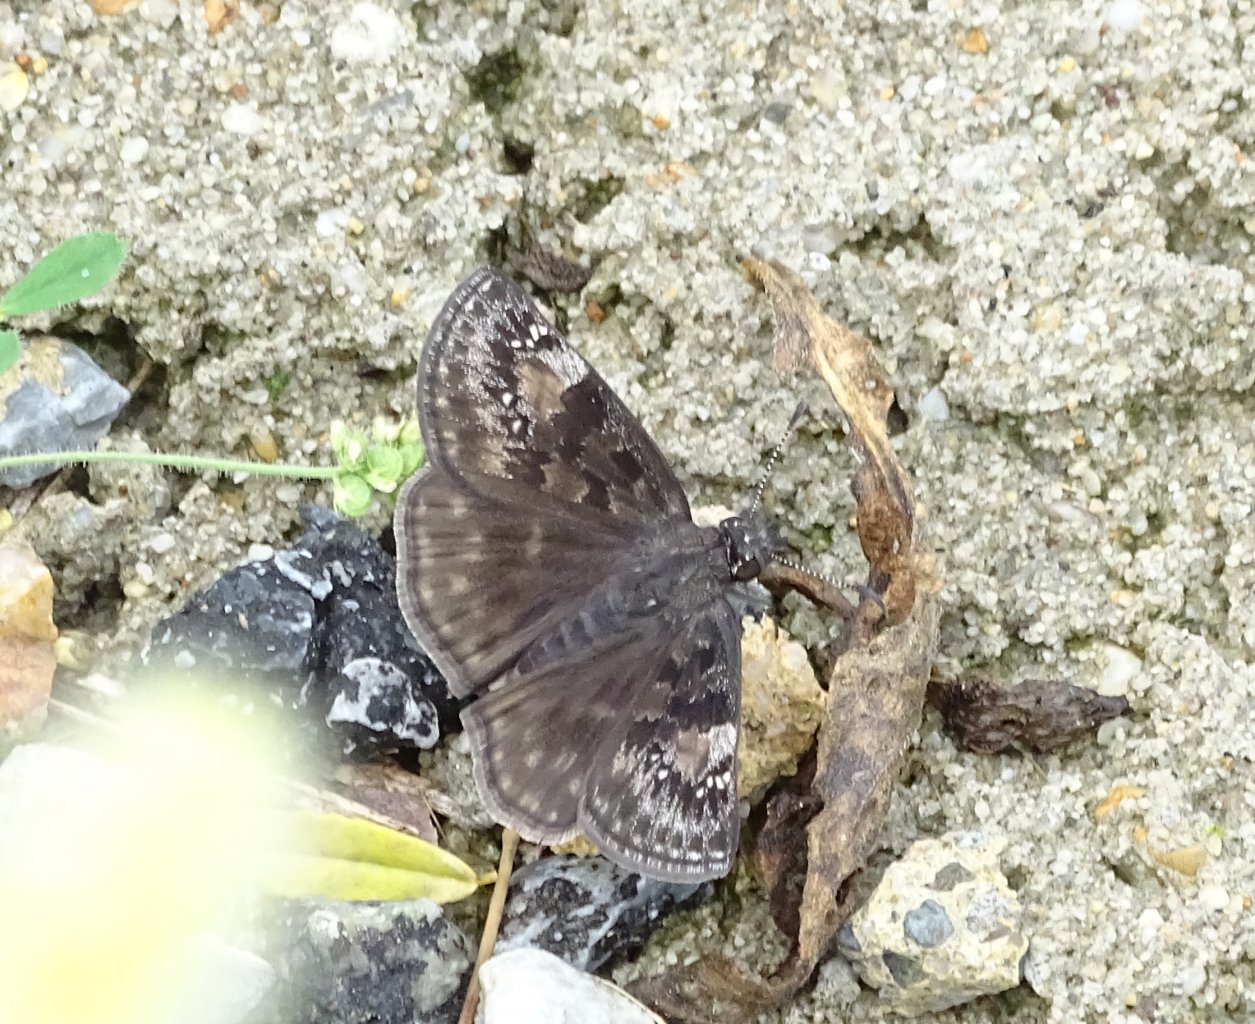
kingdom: Animalia
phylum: Arthropoda
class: Insecta
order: Lepidoptera
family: Hesperiidae
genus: Gesta
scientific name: Gesta
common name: Wild Indigo Duskywing
